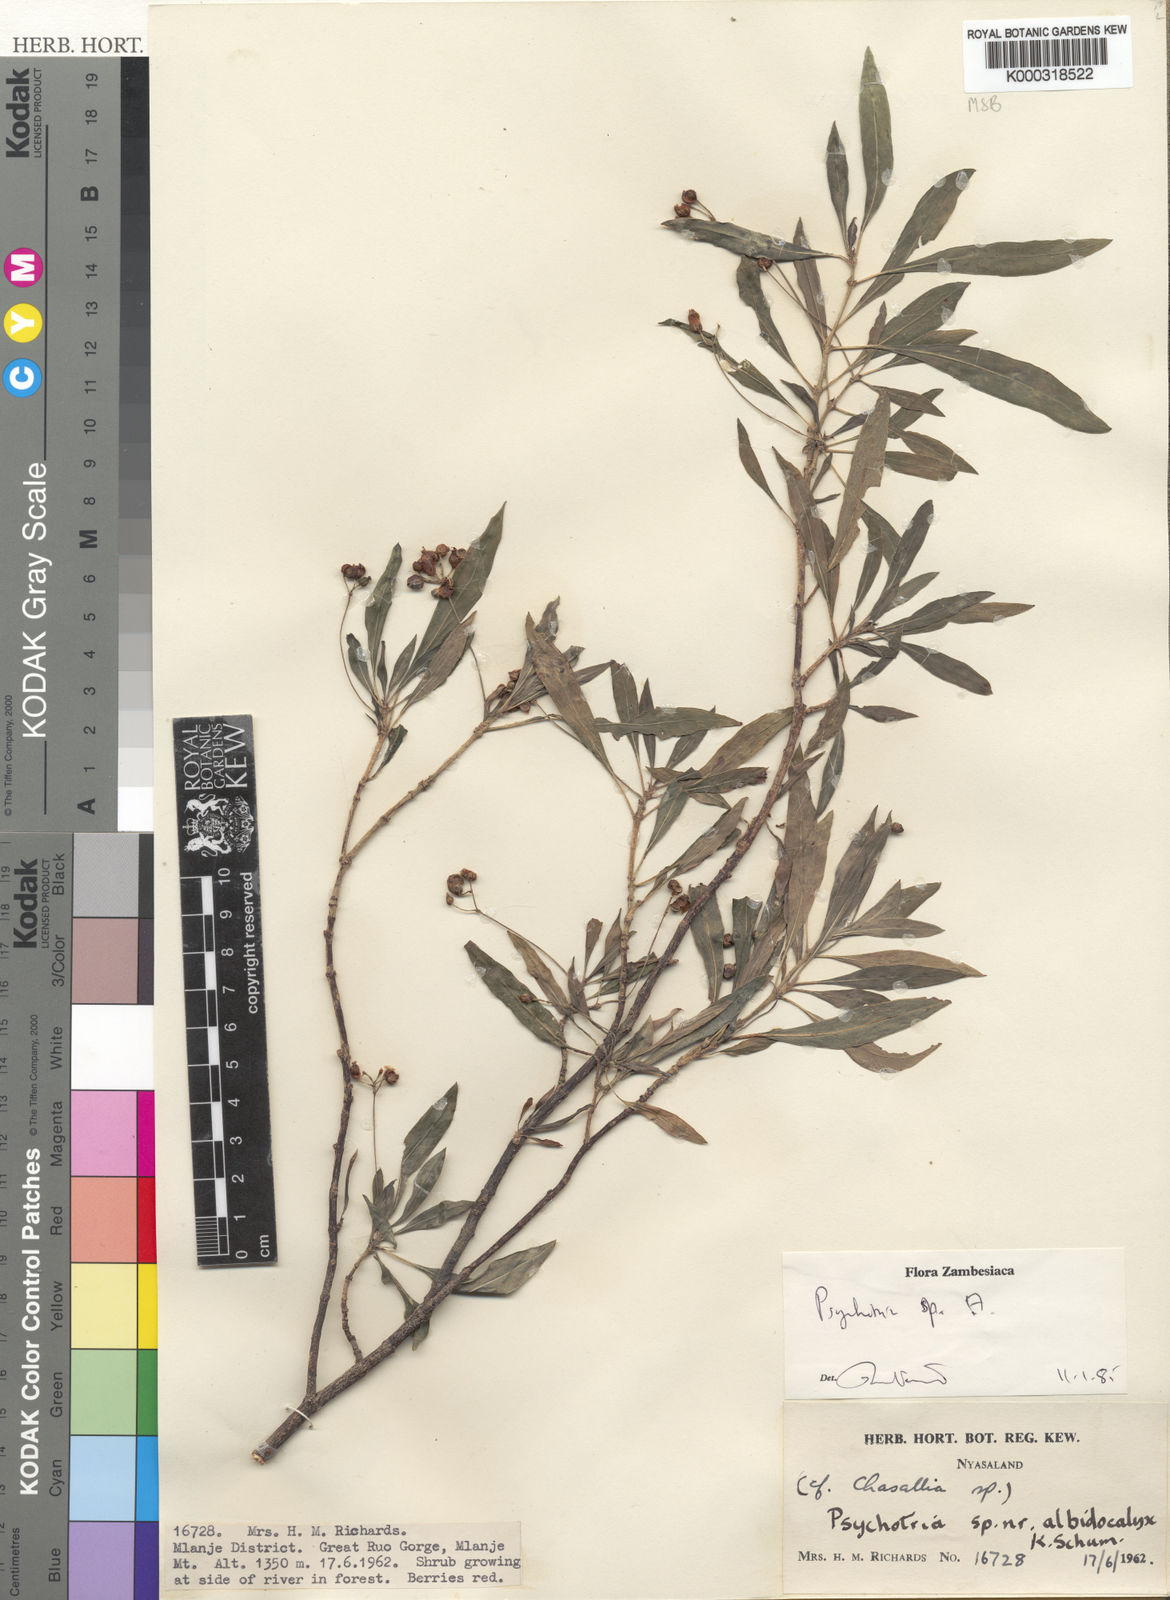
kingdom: Plantae
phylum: Tracheophyta
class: Magnoliopsida
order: Gentianales
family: Rubiaceae
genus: Psychotria
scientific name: Psychotria
